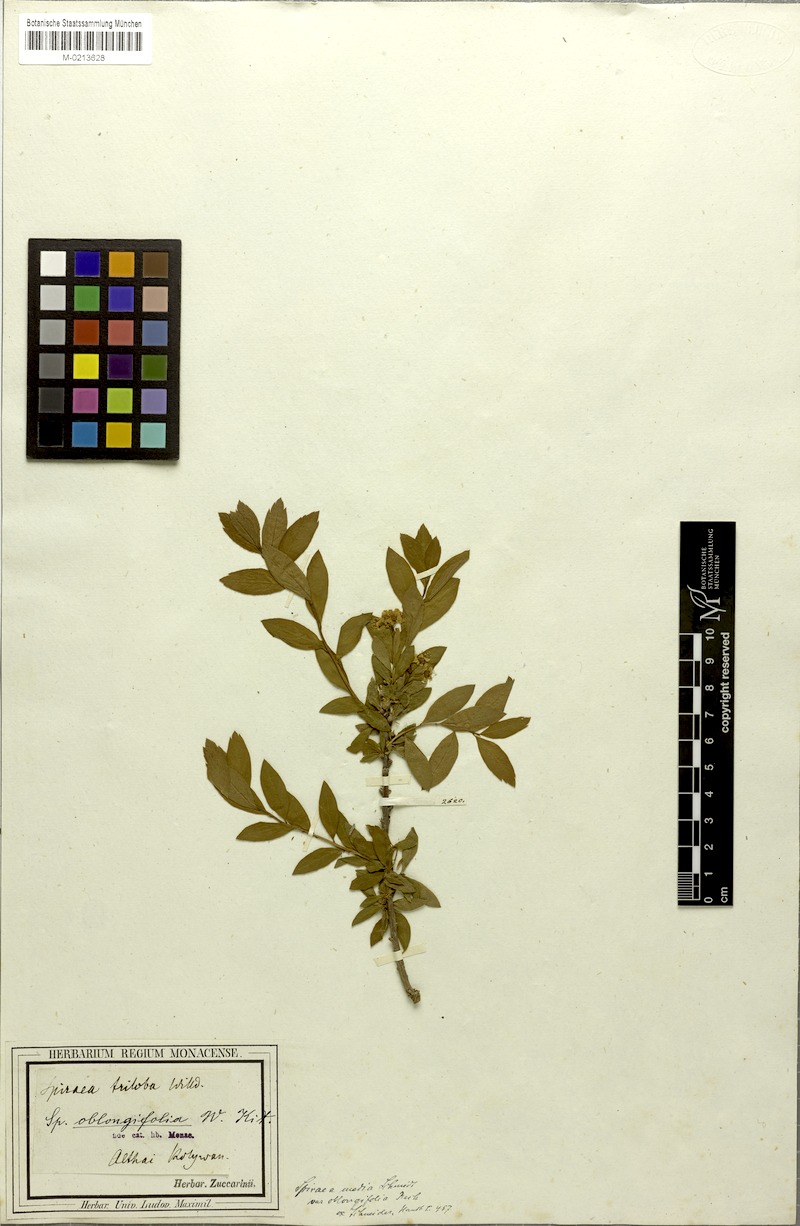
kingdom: Plantae
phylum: Tracheophyta
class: Magnoliopsida
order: Rosales
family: Rosaceae
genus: Spiraea
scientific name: Spiraea media
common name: Russian spiraea
